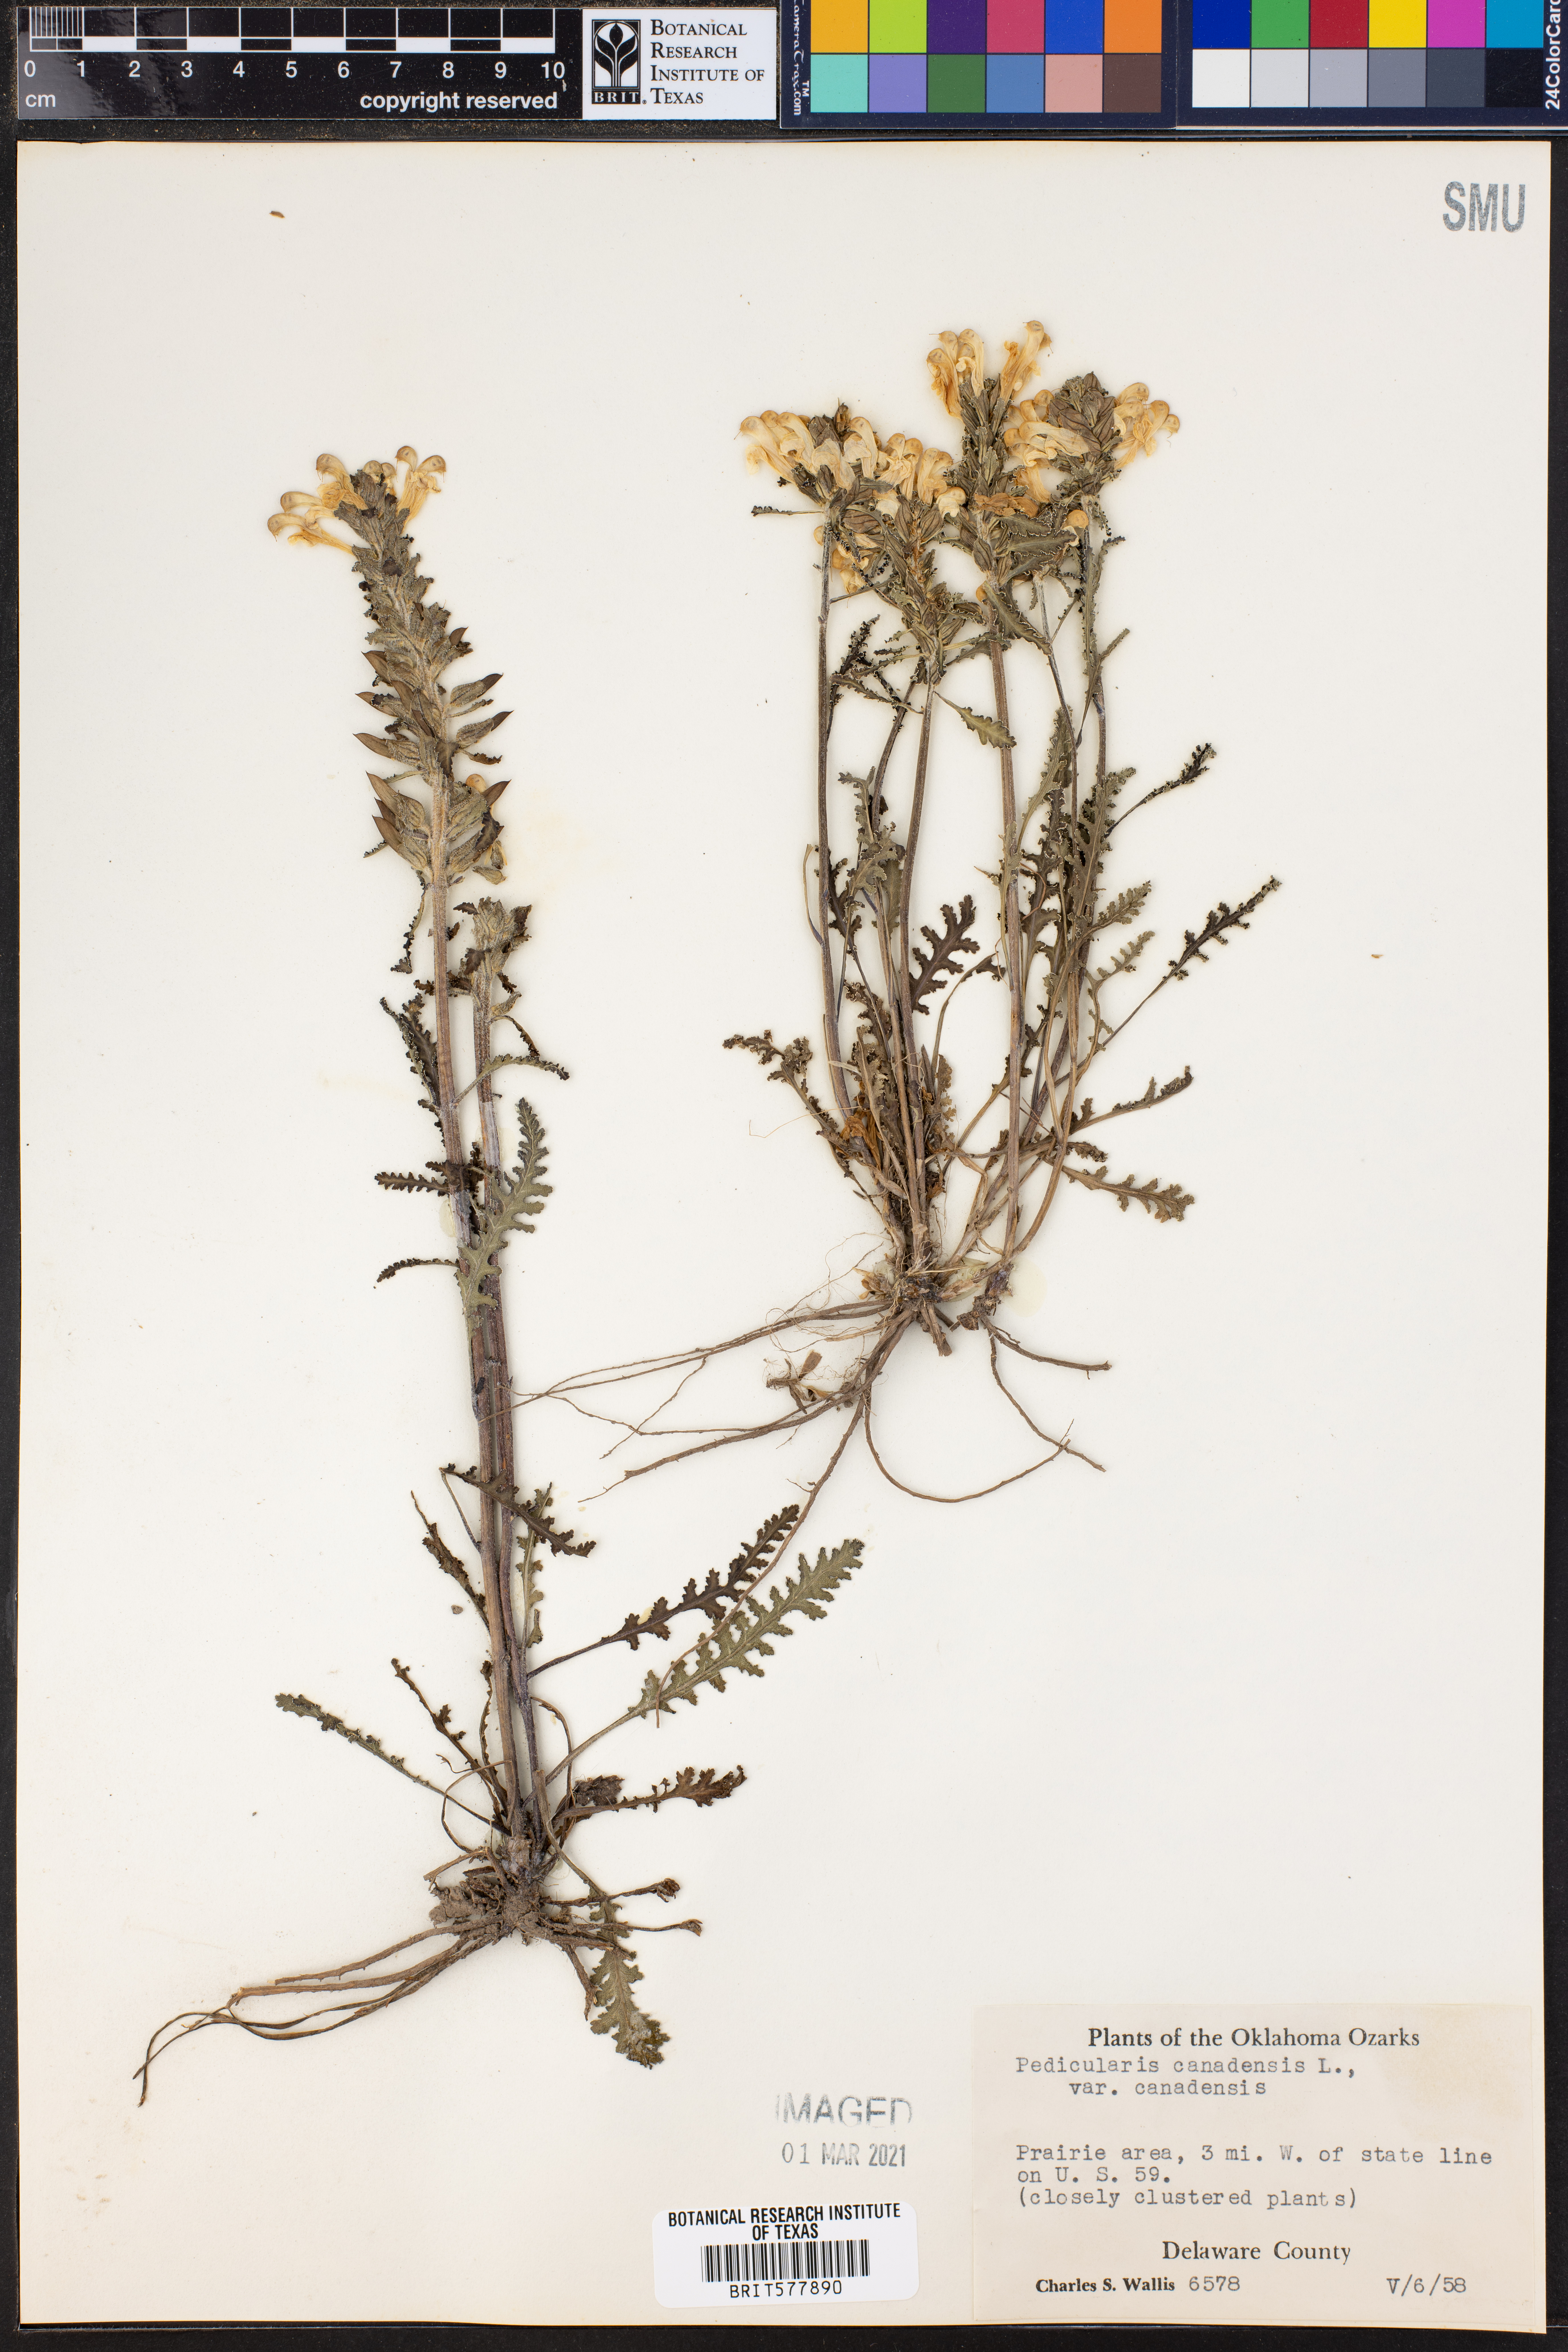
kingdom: Plantae
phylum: Tracheophyta
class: Magnoliopsida
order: Lamiales
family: Orobanchaceae
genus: Pedicularis
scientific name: Pedicularis canadensis
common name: Early lousewort
